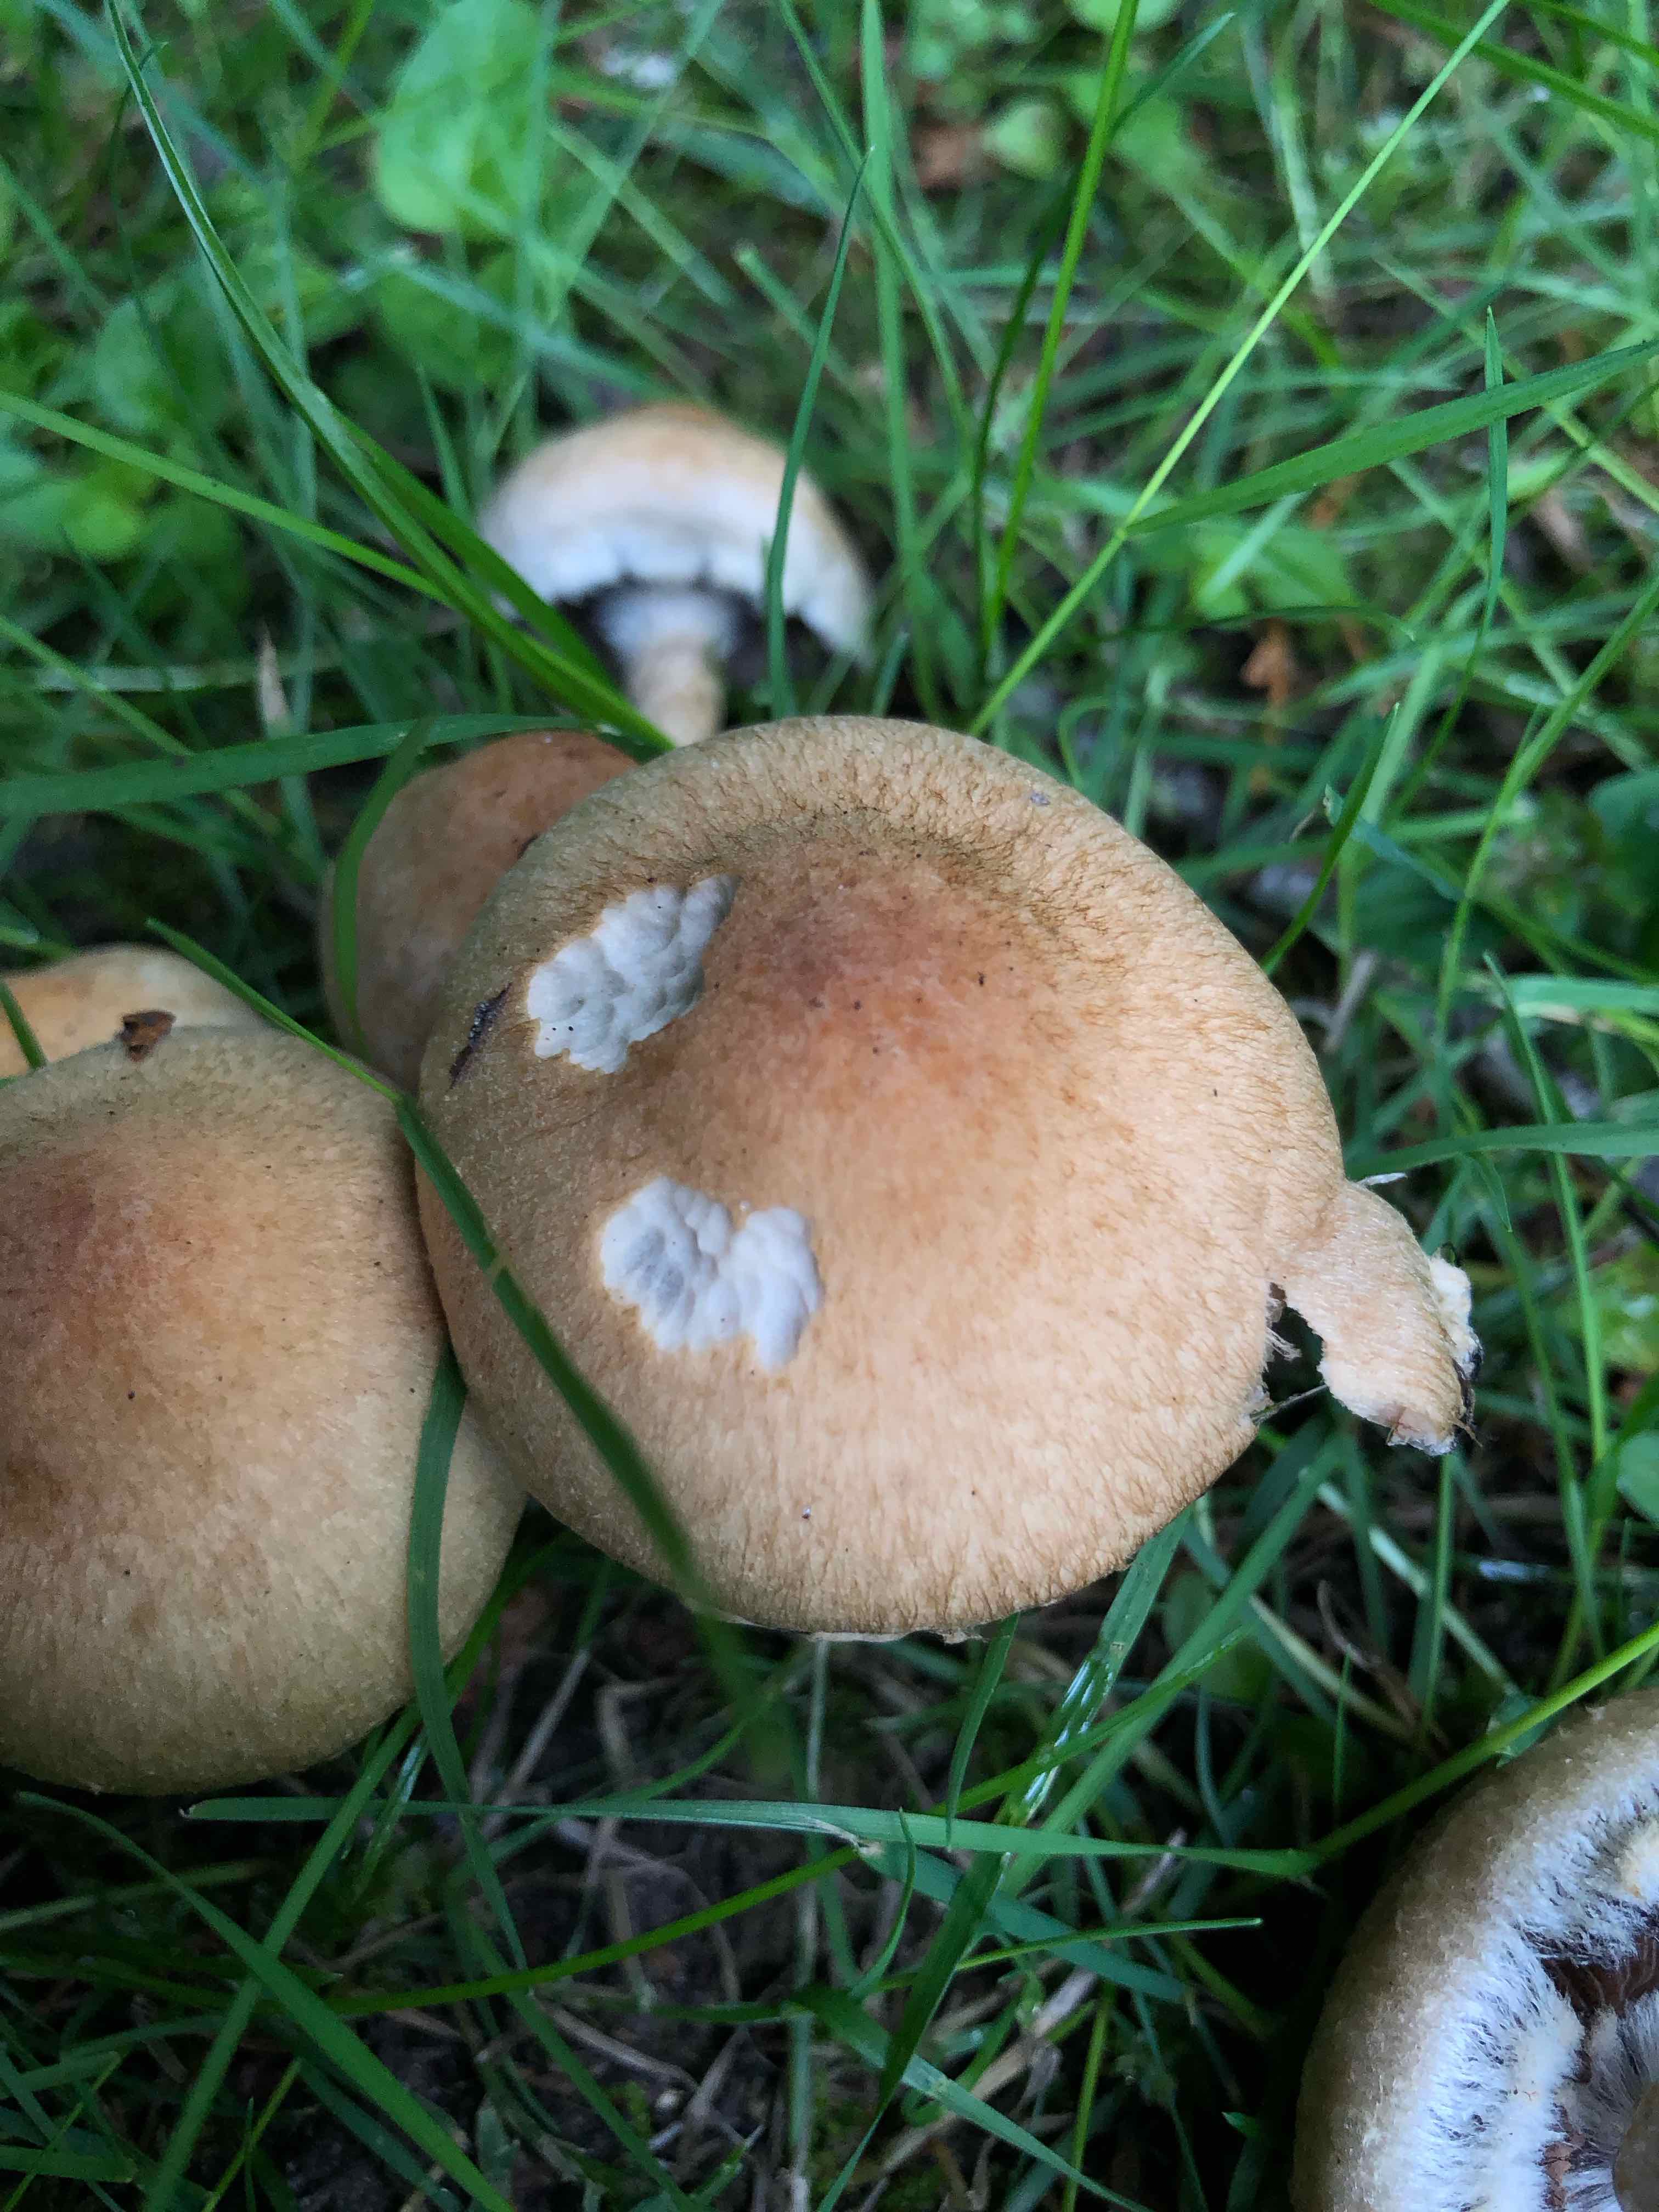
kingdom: Fungi
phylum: Basidiomycota
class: Agaricomycetes
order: Agaricales
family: Psathyrellaceae
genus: Lacrymaria
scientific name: Lacrymaria lacrymabunda
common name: grædende mørkhat
